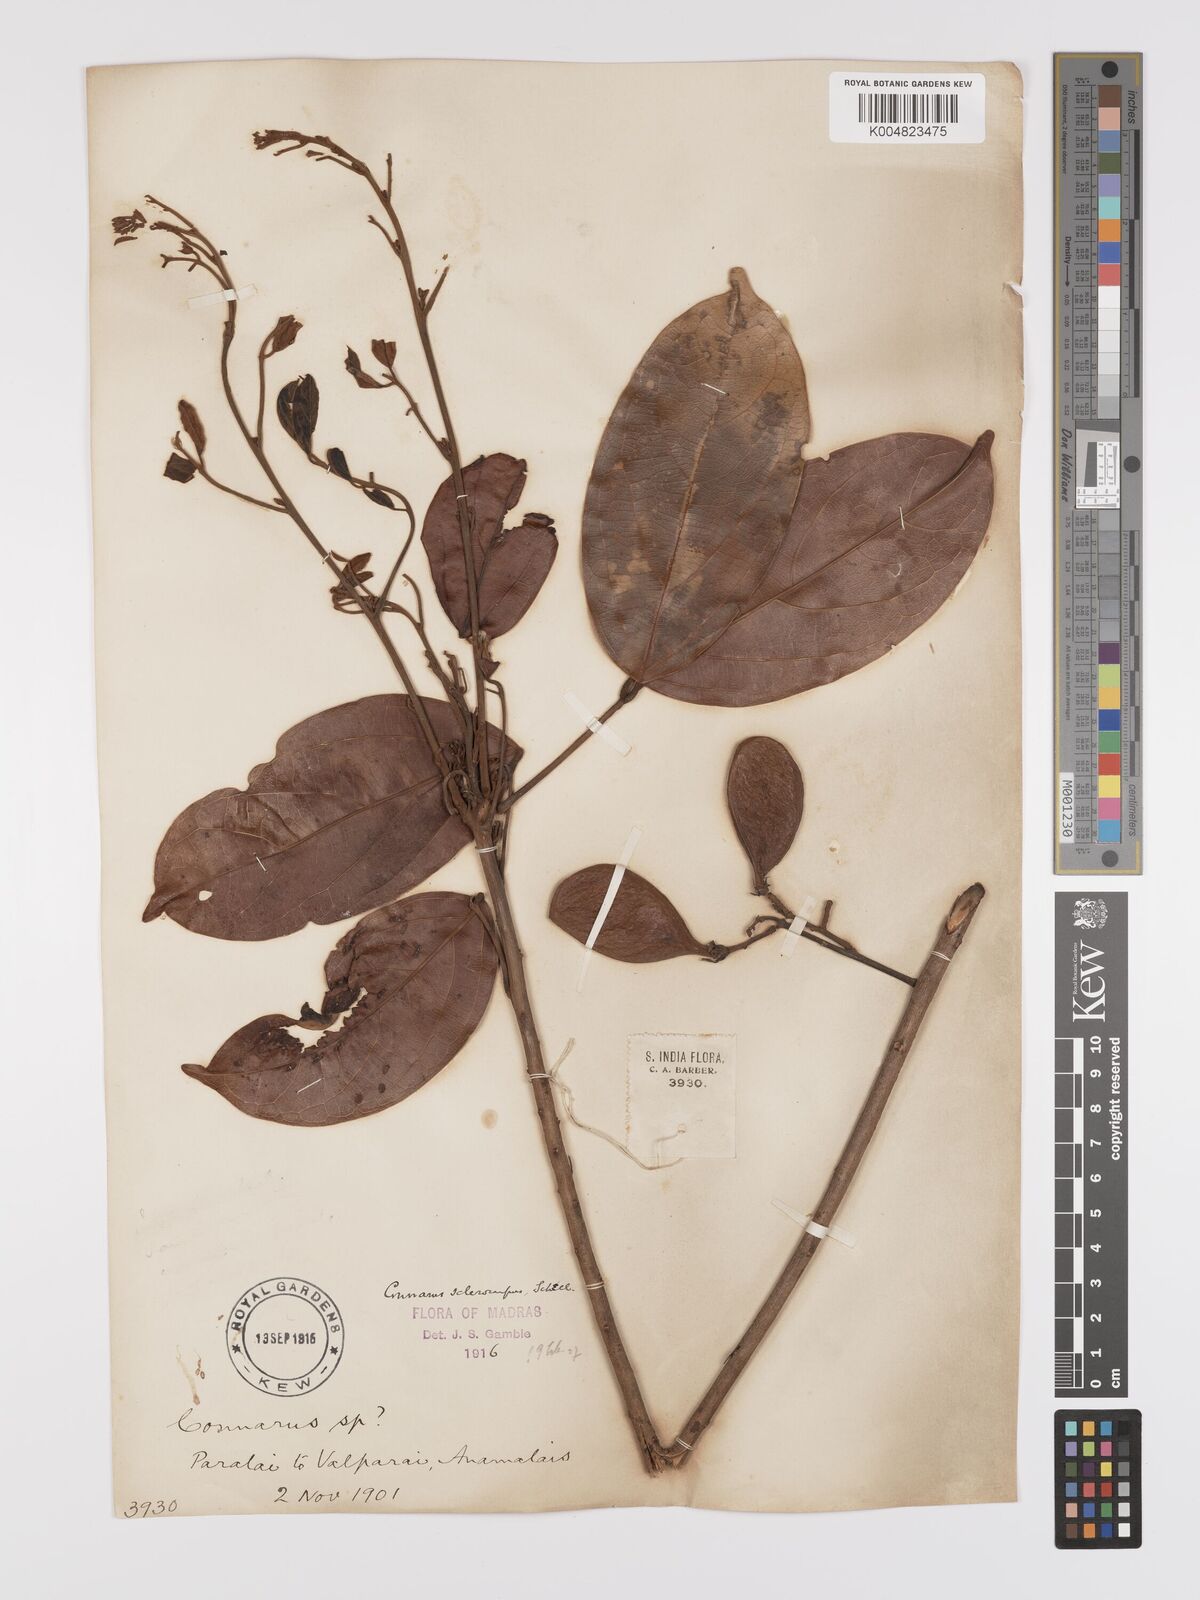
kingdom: Plantae
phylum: Tracheophyta
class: Magnoliopsida
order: Oxalidales
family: Connaraceae
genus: Connarus
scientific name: Connarus sclerocarpus
